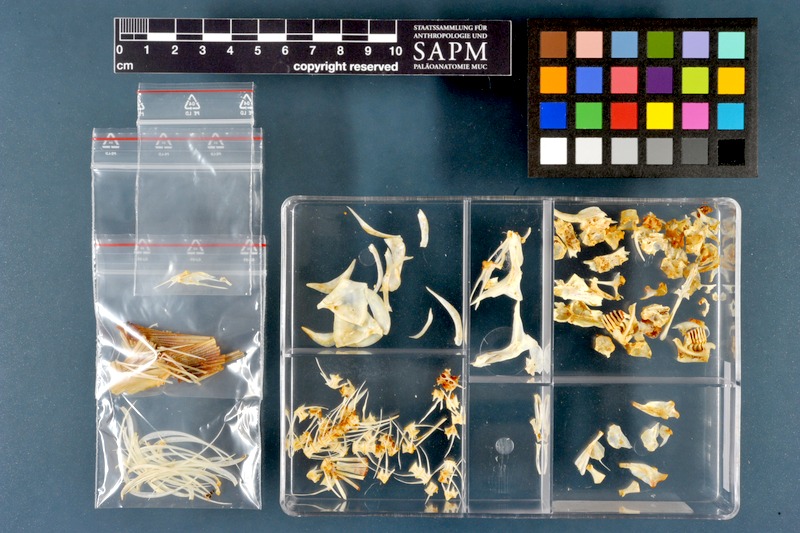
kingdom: Animalia
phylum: Chordata
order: Cypriniformes
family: Cyprinidae
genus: Chondrostoma
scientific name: Chondrostoma regium
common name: Mesopotamian nase
